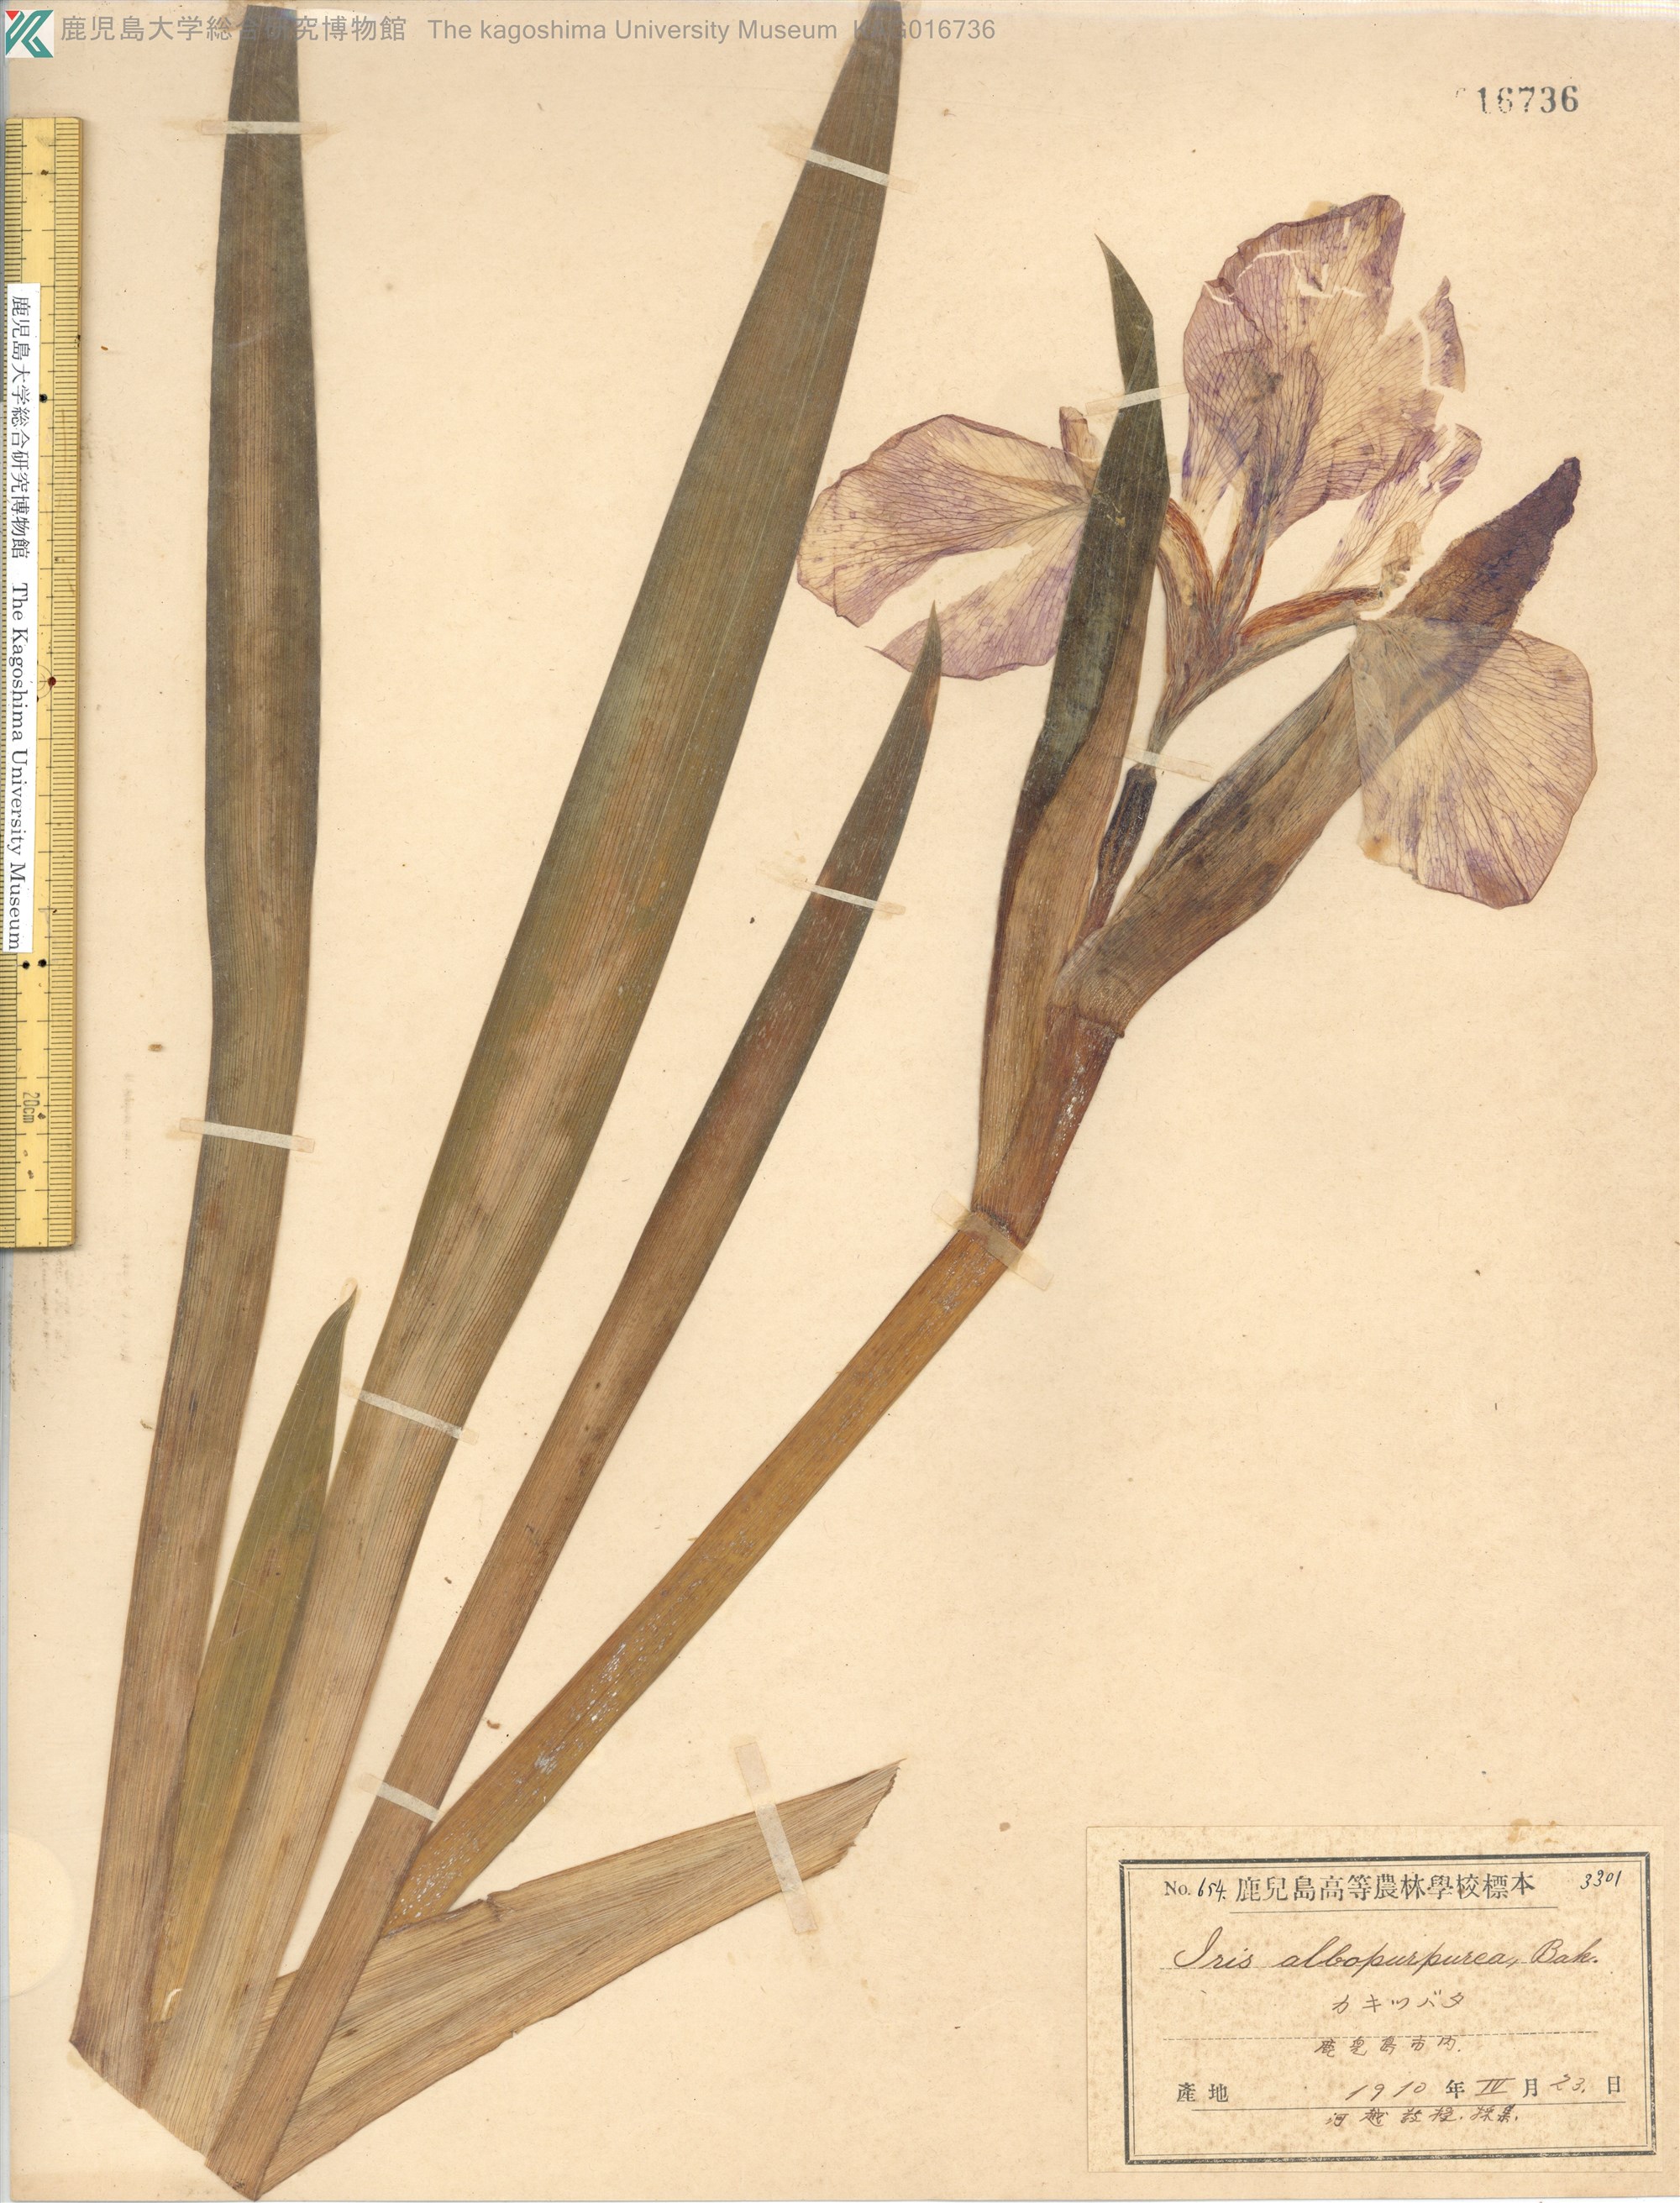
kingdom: Plantae
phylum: Tracheophyta
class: Liliopsida
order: Asparagales
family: Iridaceae
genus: Iris
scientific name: Iris laevigata
